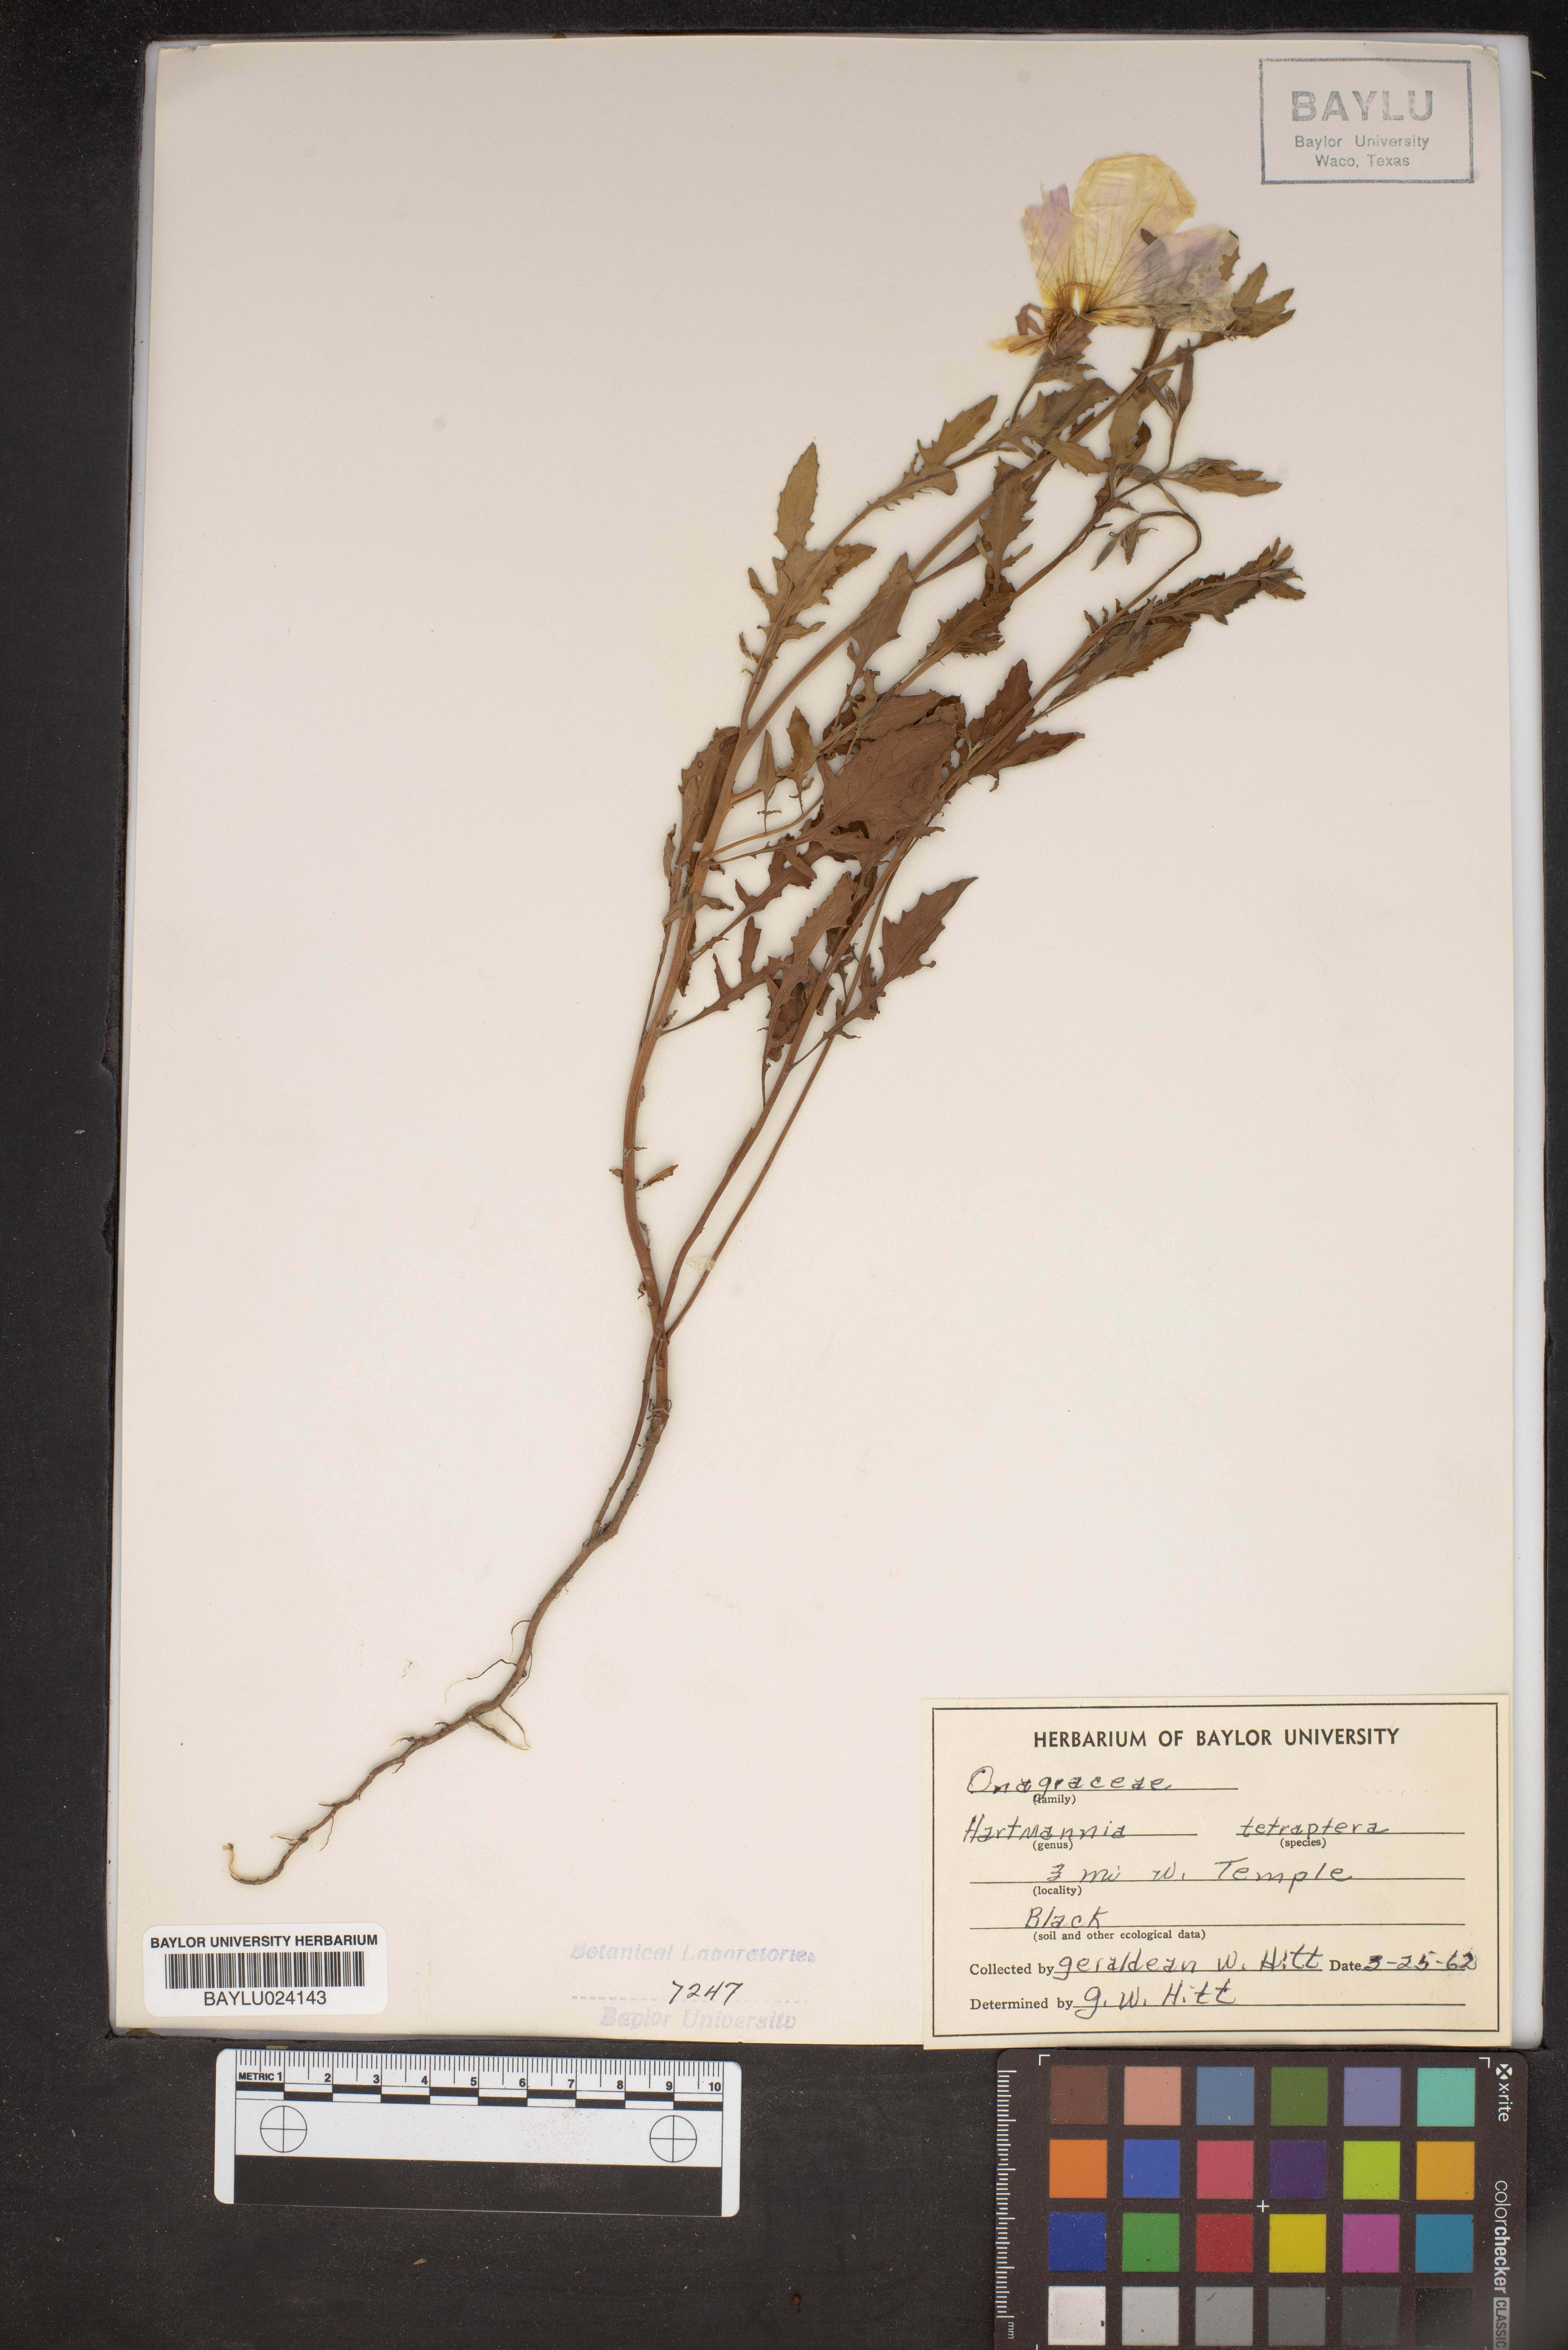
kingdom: Plantae
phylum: Tracheophyta
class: Magnoliopsida
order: Myrtales
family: Onagraceae
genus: Oenothera
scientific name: Oenothera tetraptera
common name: Four-wing evening-primrose
